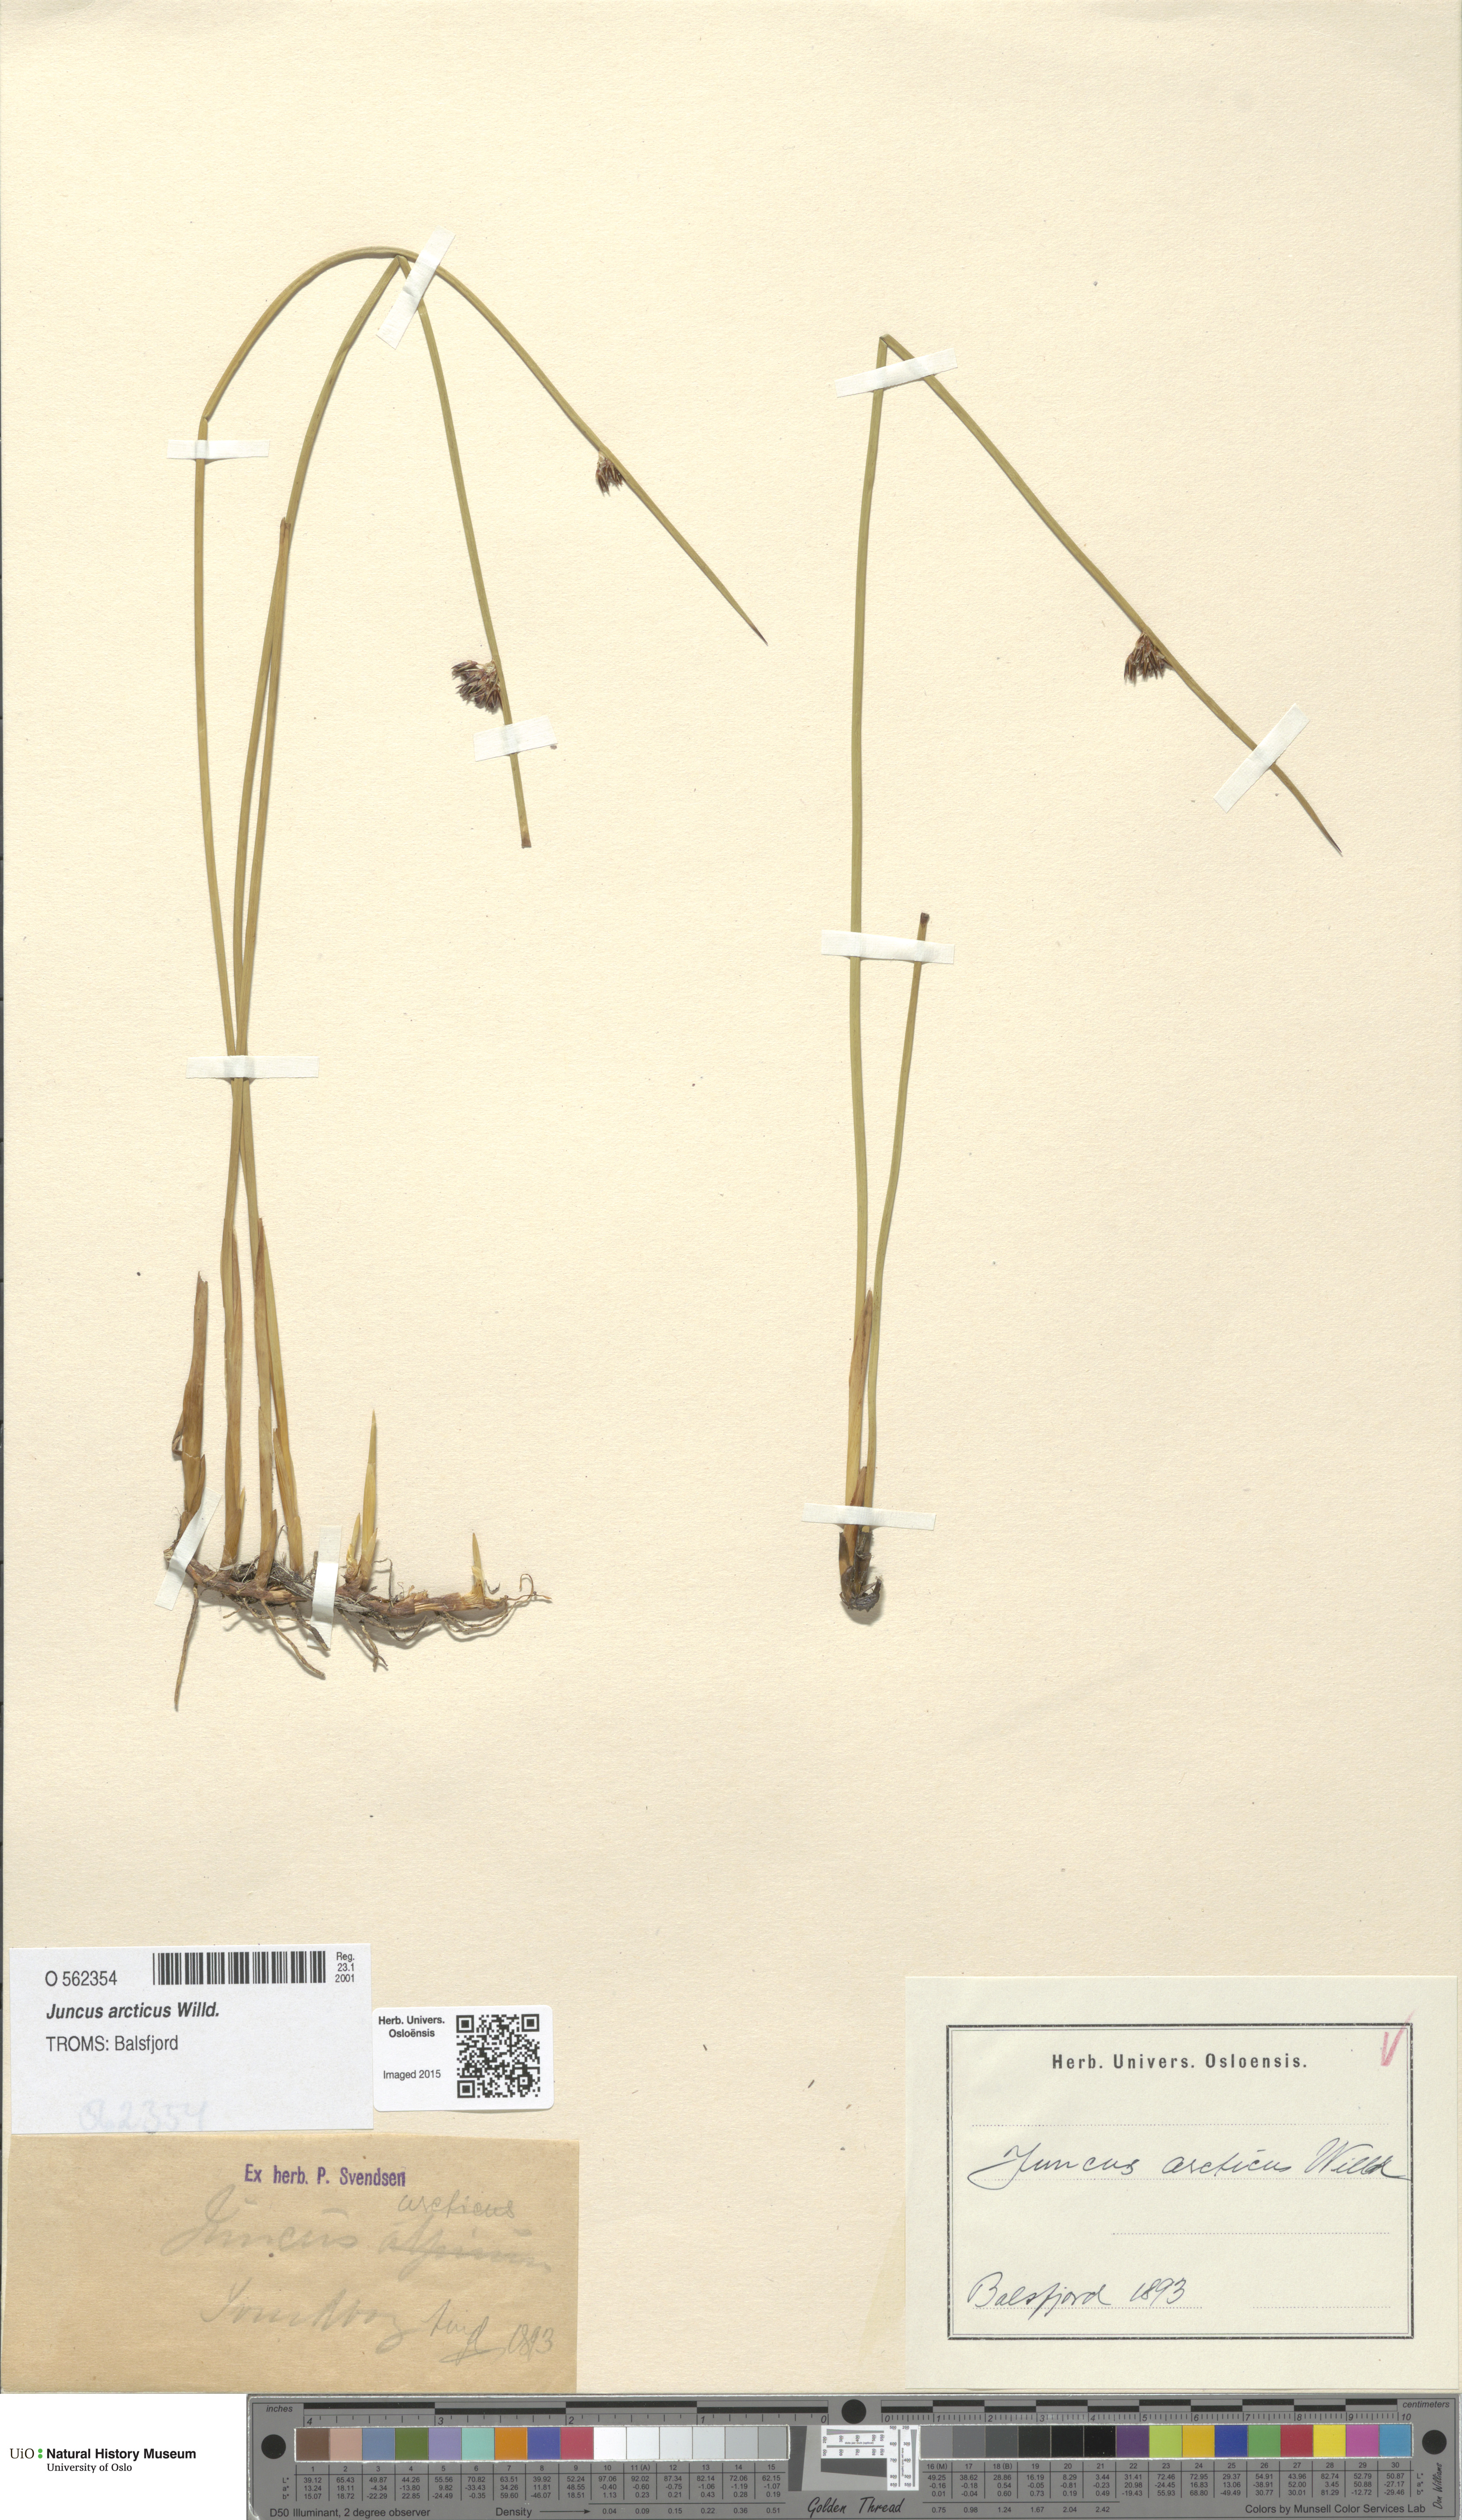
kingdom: Plantae
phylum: Tracheophyta
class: Liliopsida
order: Poales
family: Juncaceae
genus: Juncus
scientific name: Juncus arcticus
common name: Arctic rush
